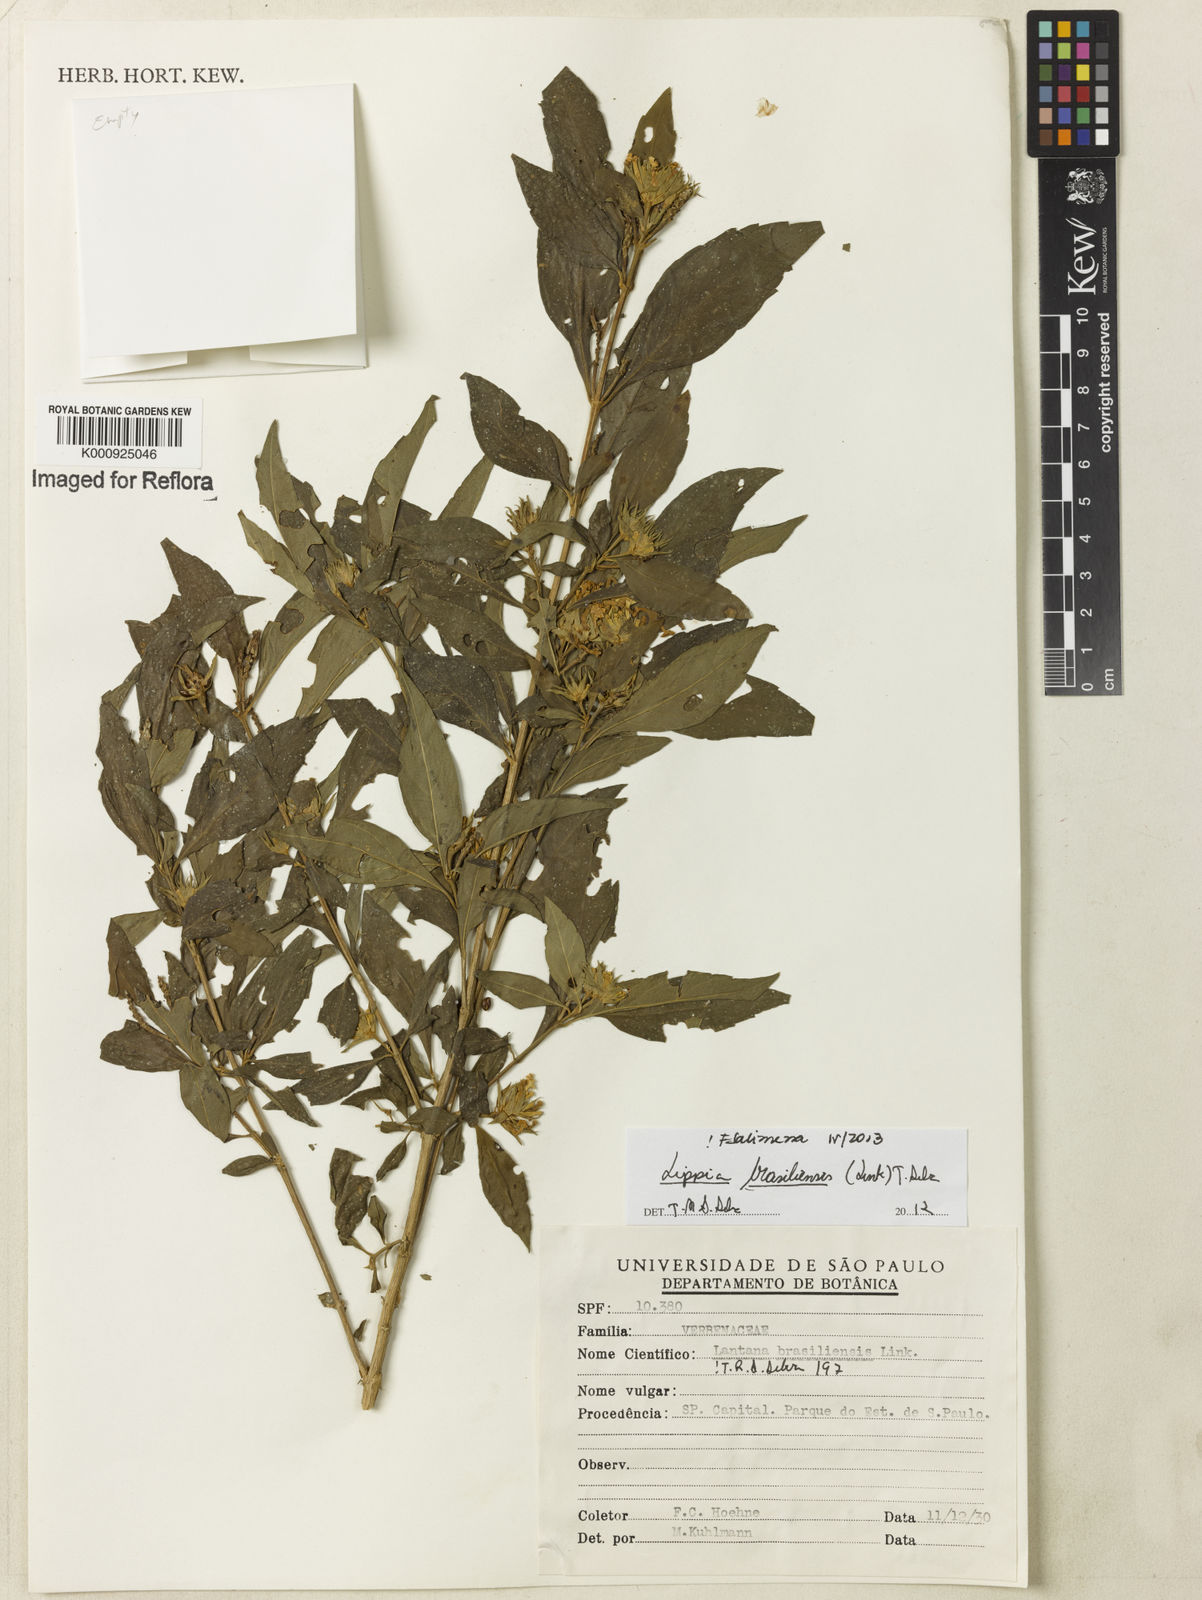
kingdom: Plantae
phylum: Tracheophyta
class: Magnoliopsida
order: Lamiales
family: Verbenaceae
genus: Lippia
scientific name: Lippia brasiliensis
